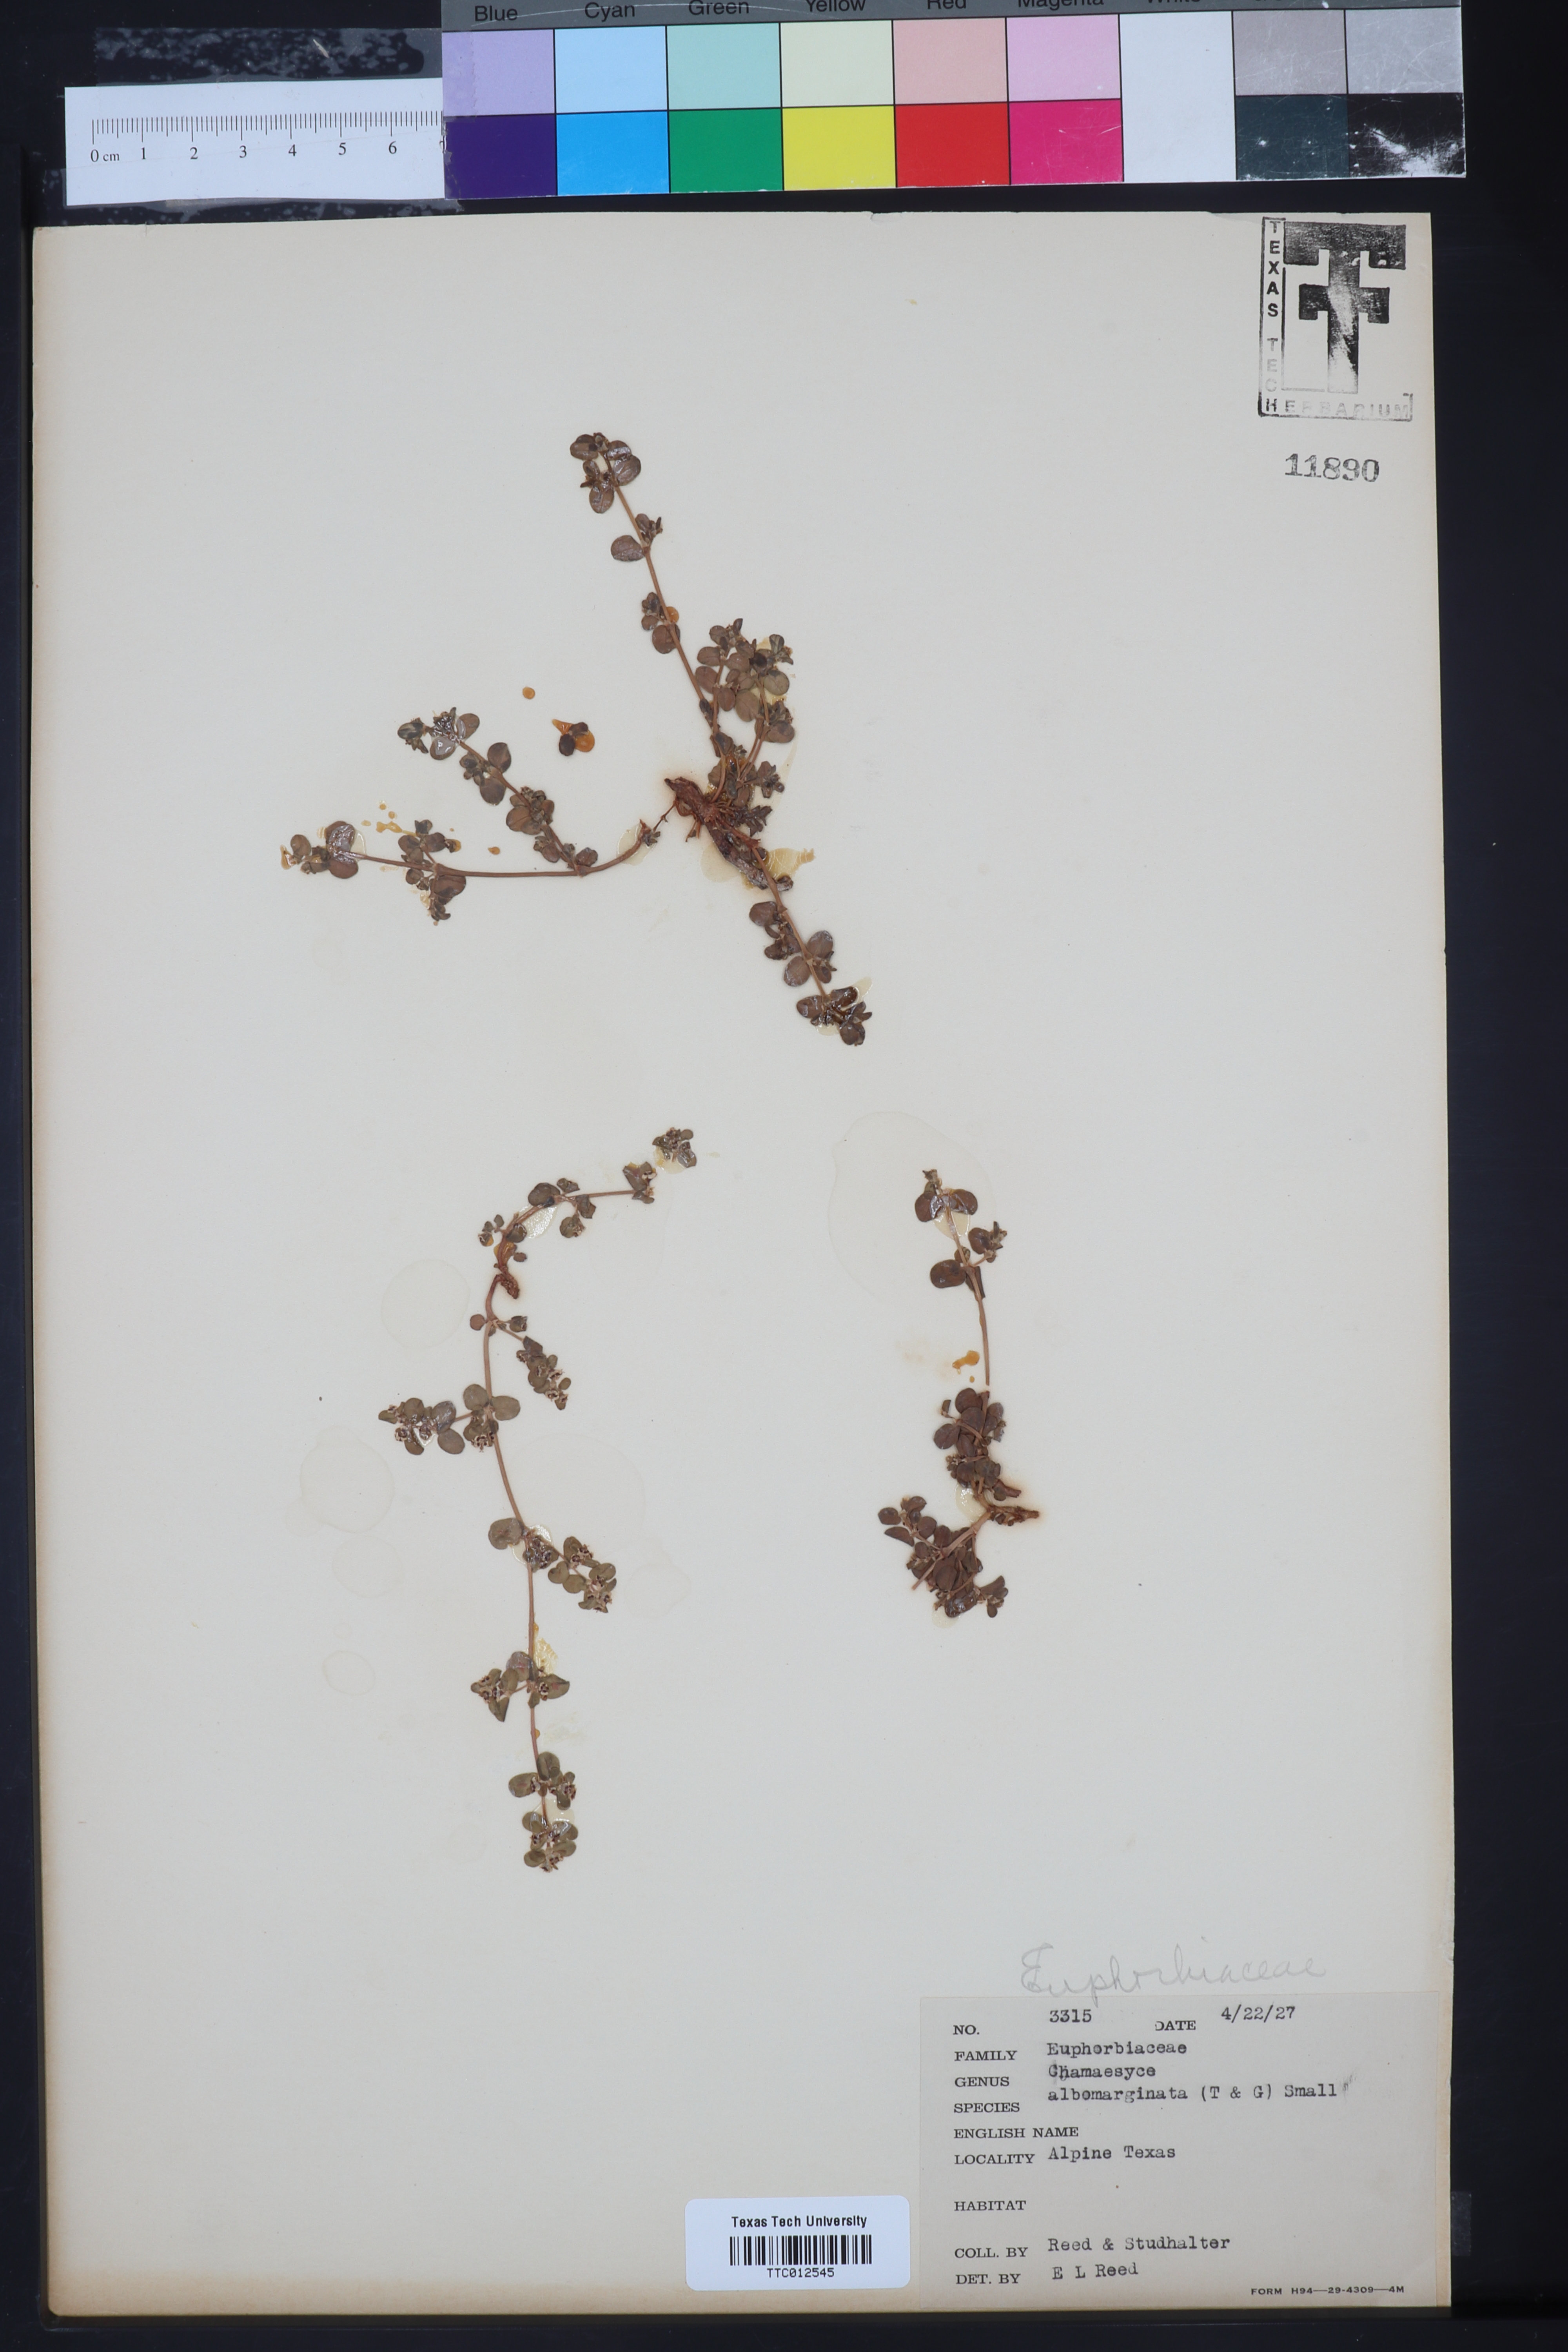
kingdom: Plantae
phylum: Tracheophyta
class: Magnoliopsida
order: Malpighiales
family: Euphorbiaceae
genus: Euphorbia
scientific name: Euphorbia albomarginata
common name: Whitemargin sandmat
